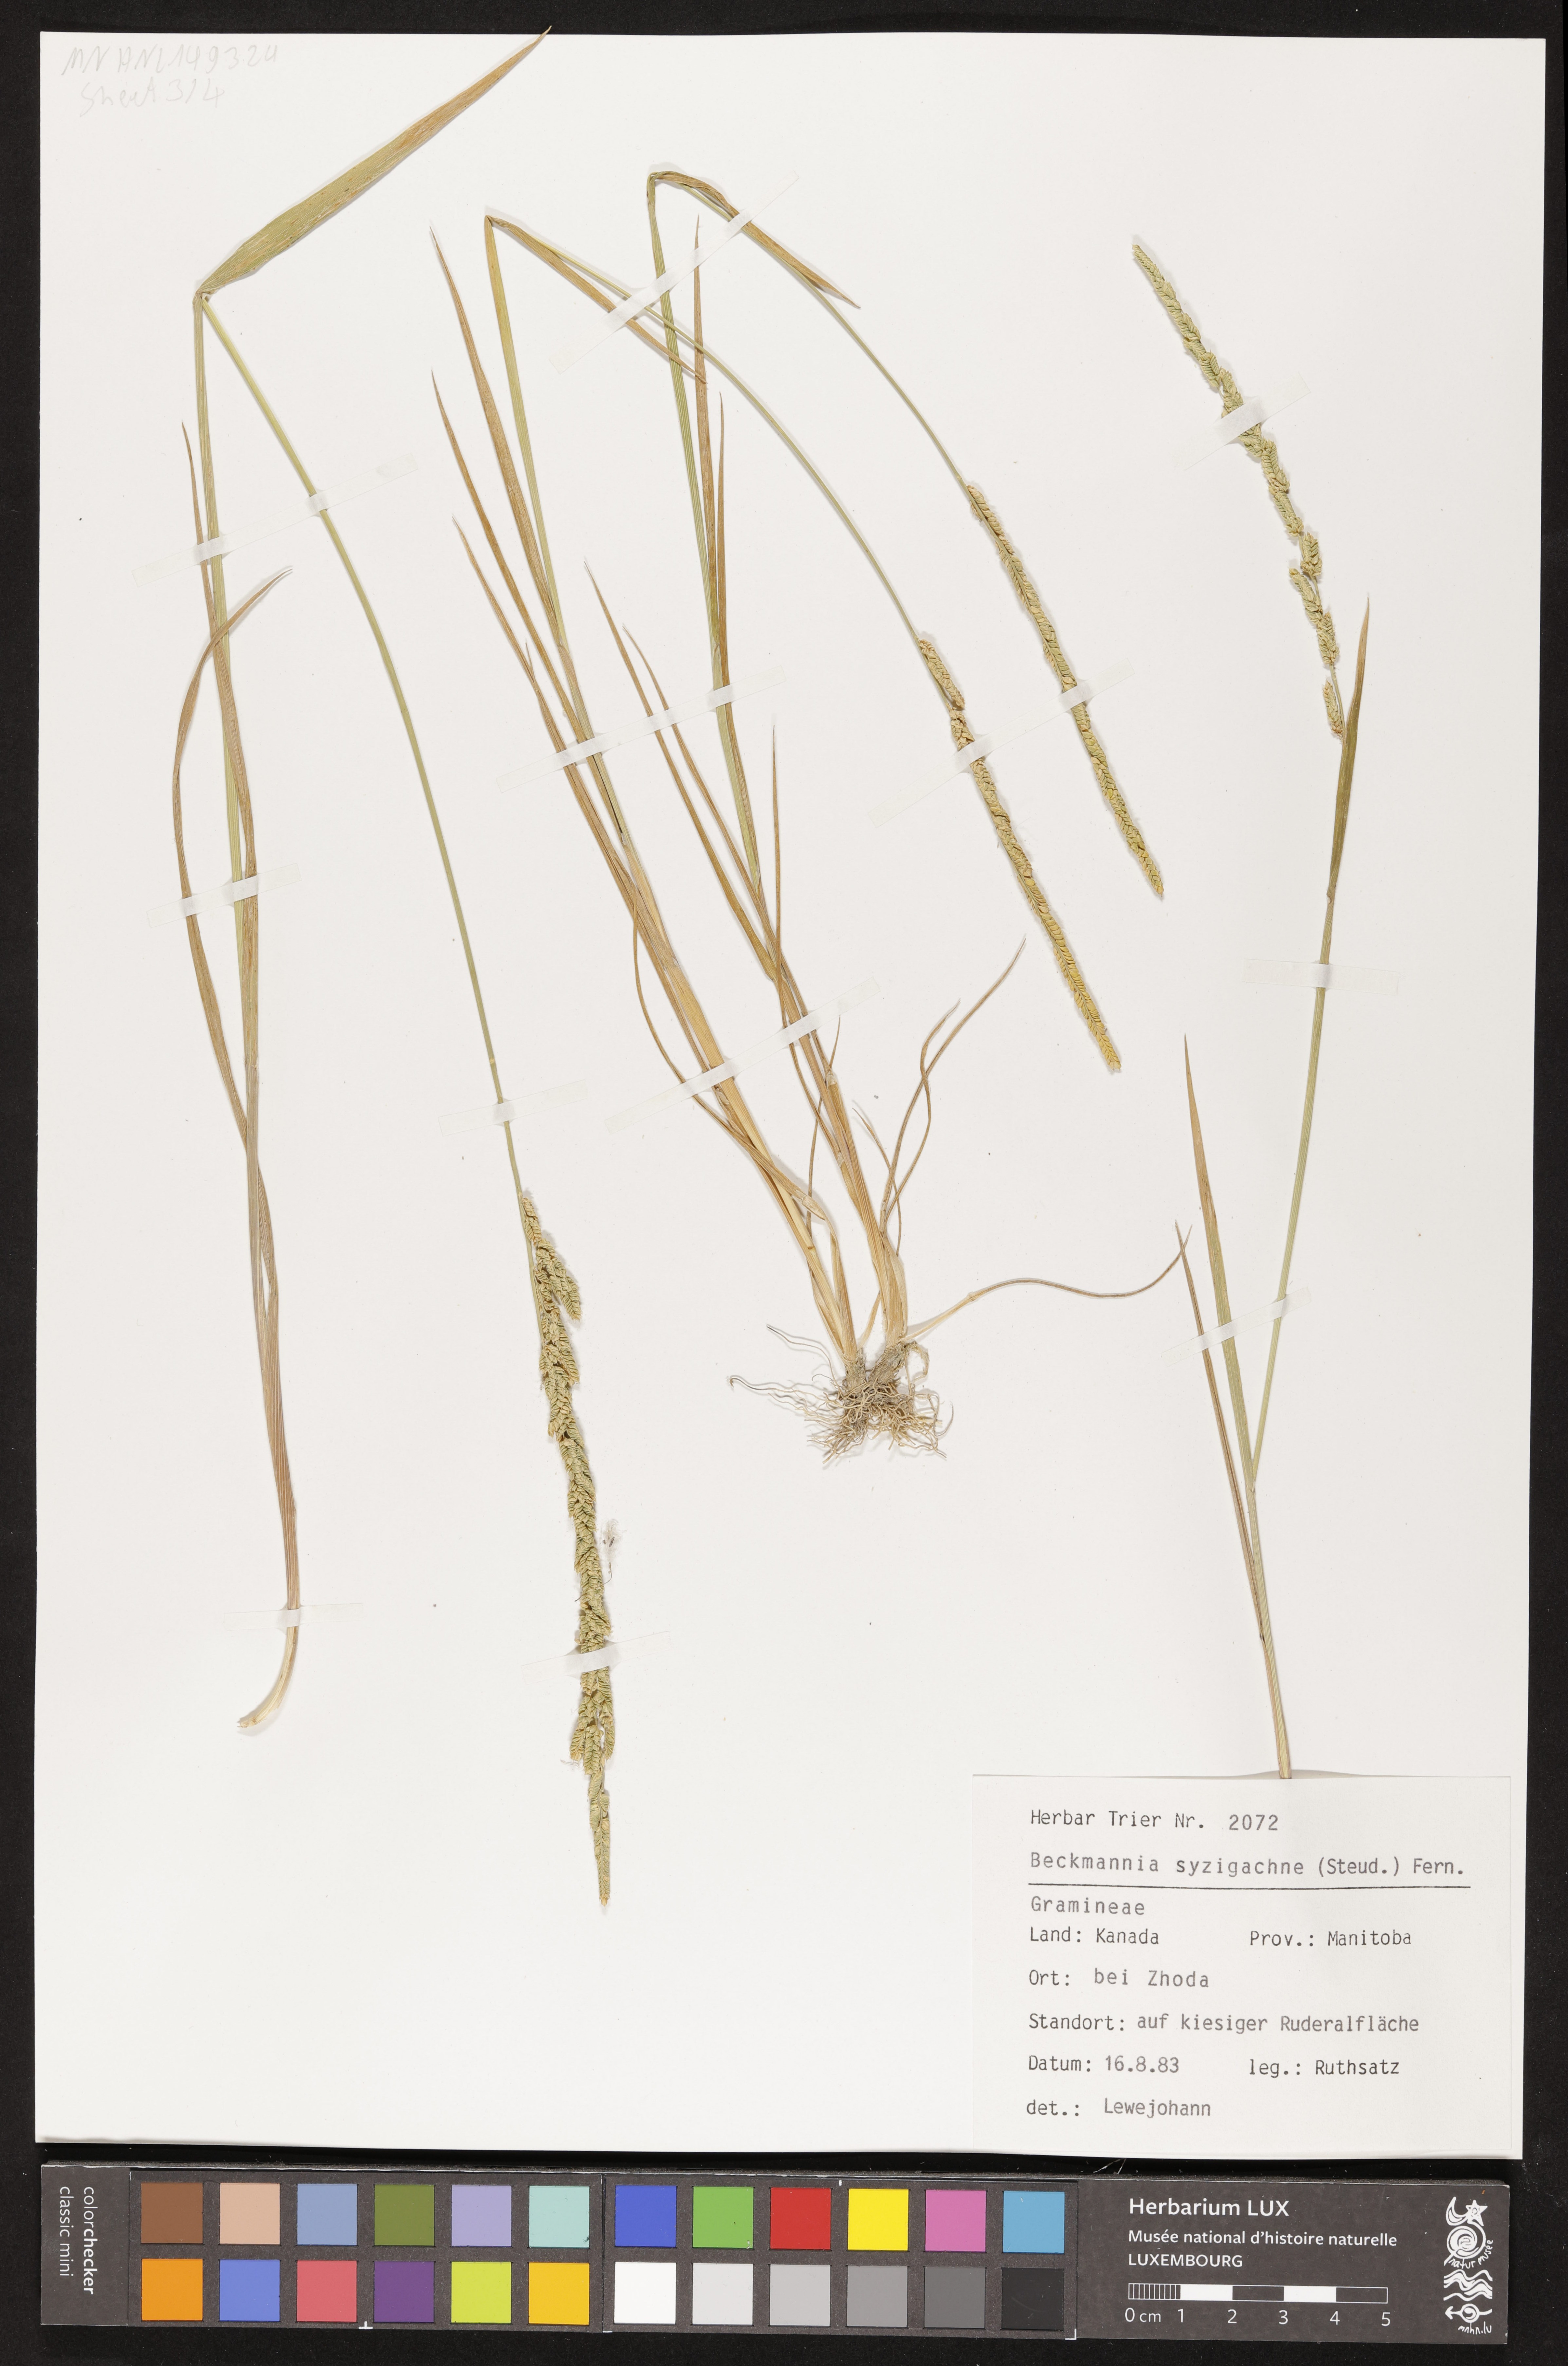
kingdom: Plantae
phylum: Tracheophyta
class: Liliopsida
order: Poales
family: Poaceae
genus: Beckmannia
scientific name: Beckmannia syzigachne
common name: American slough-grass
